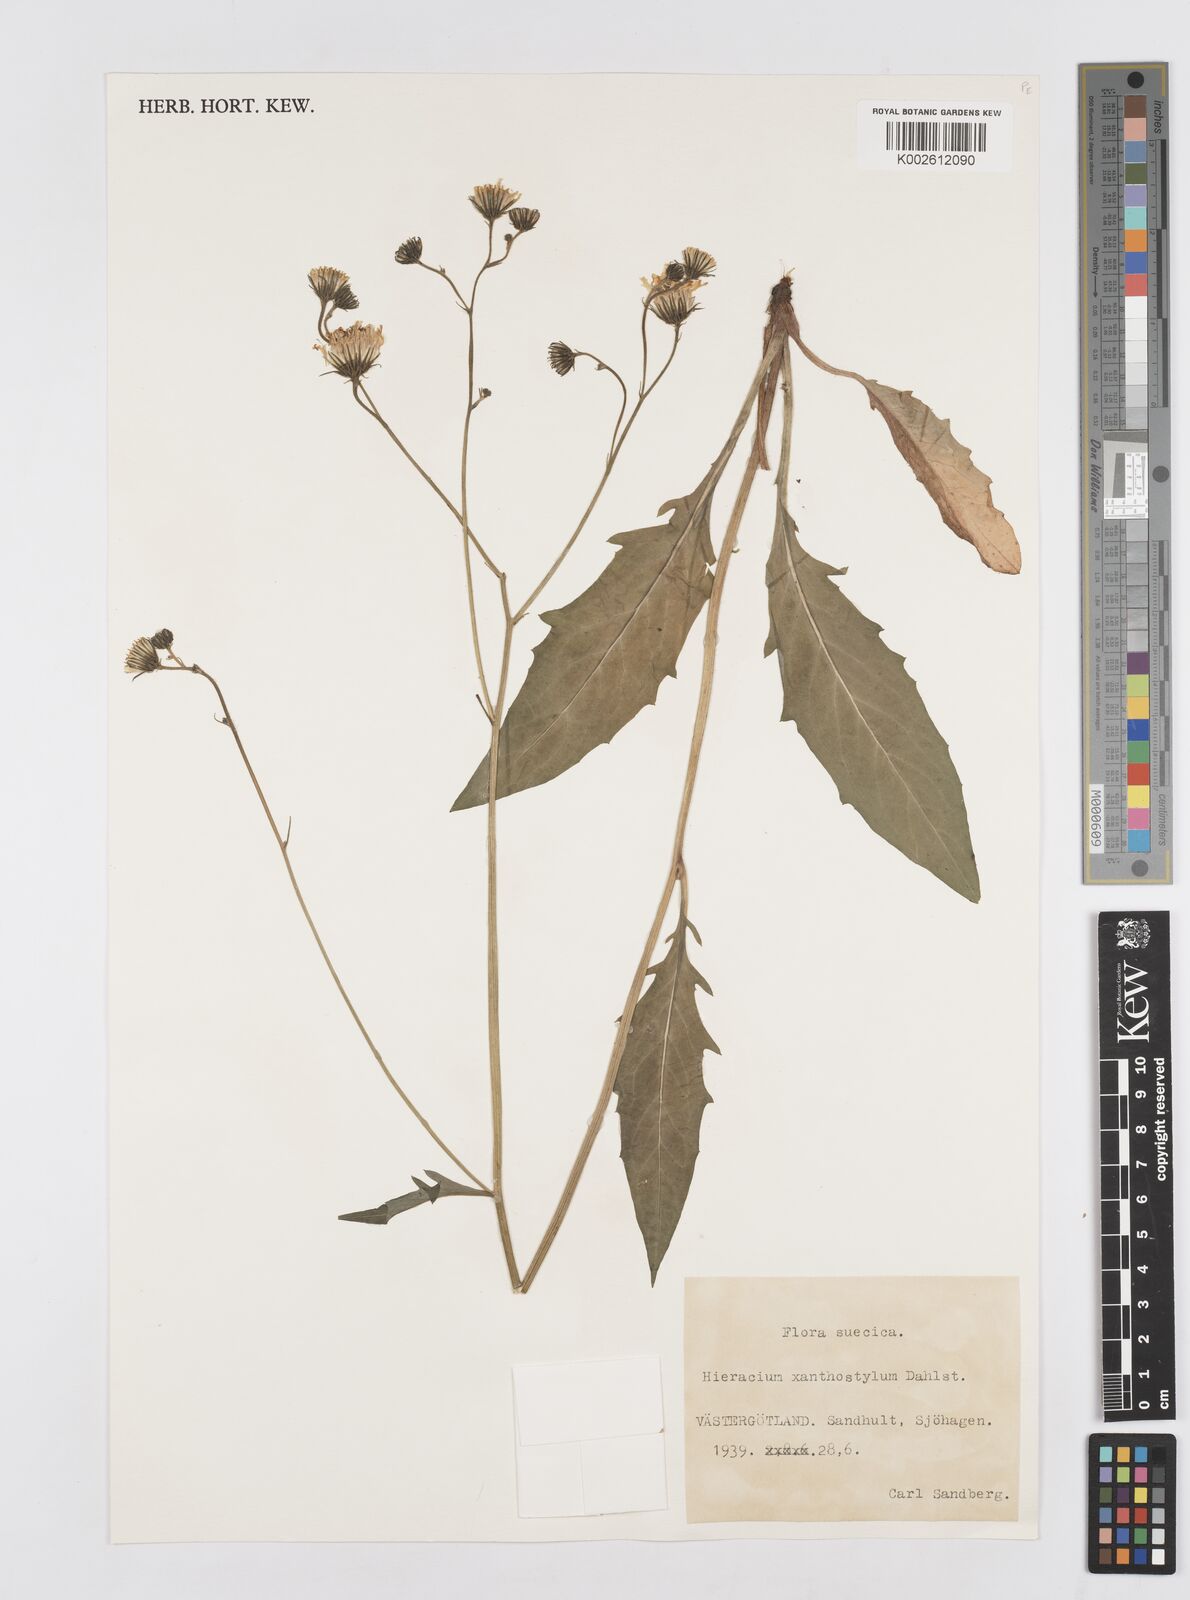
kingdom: Plantae
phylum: Tracheophyta
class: Magnoliopsida
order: Asterales
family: Asteraceae
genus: Hieracium
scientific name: Hieracium xanthostylum
